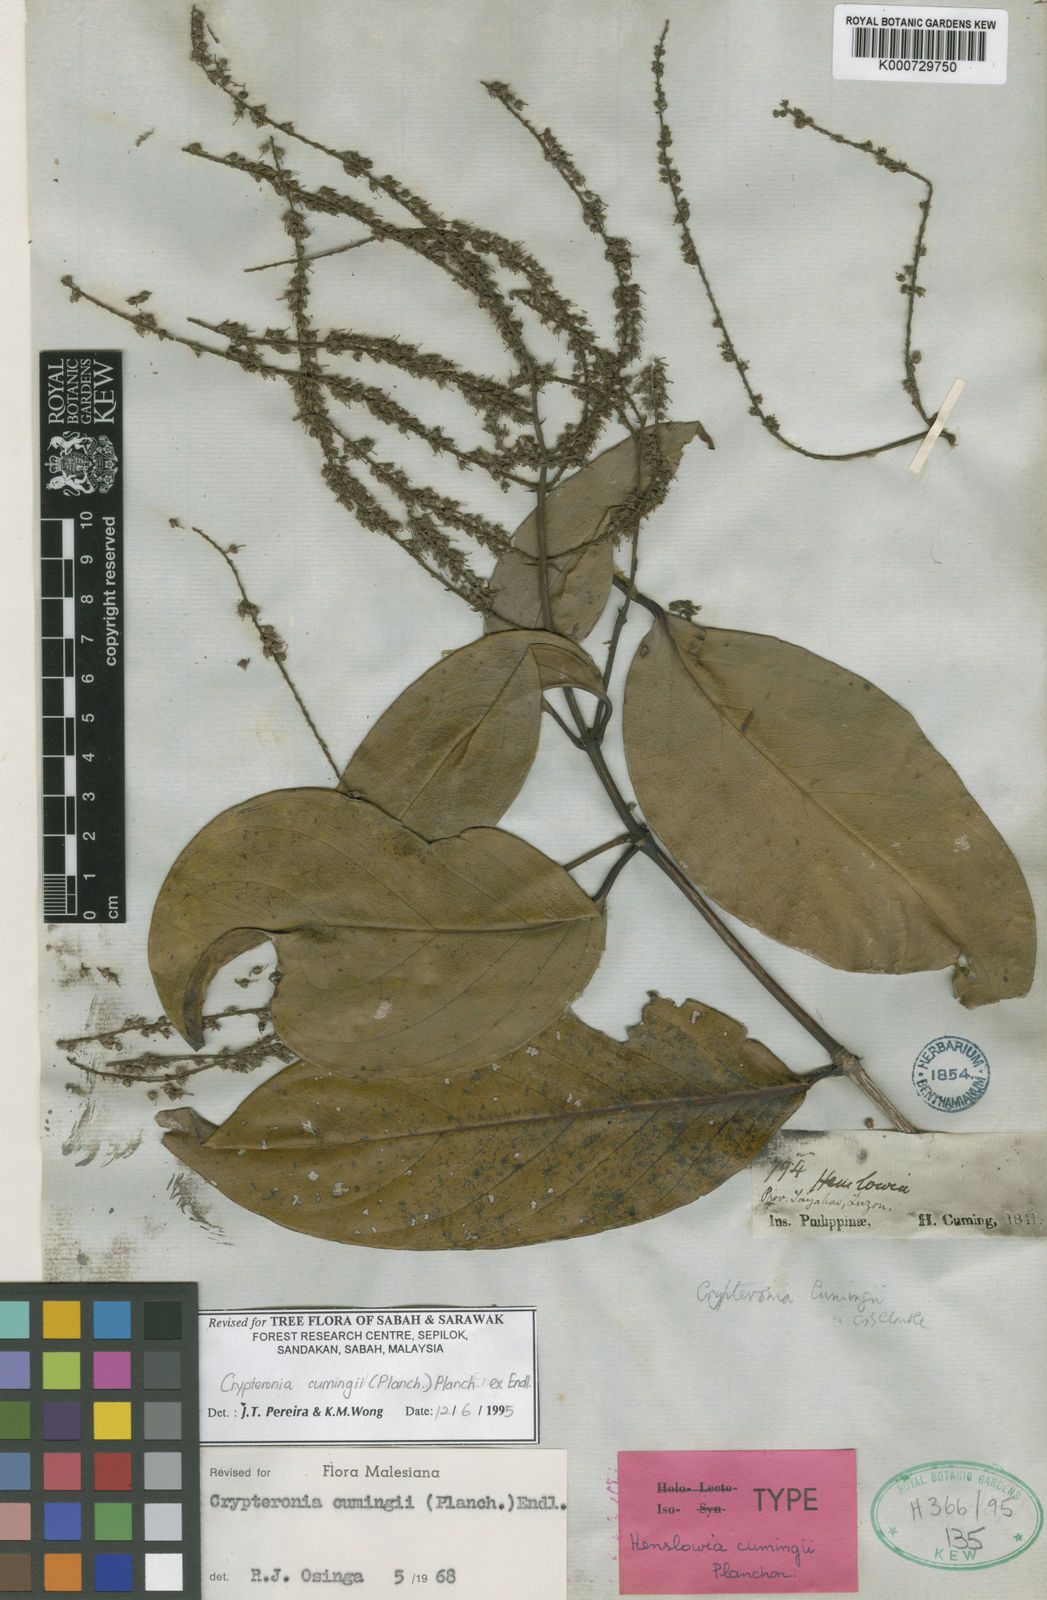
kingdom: Plantae
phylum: Tracheophyta
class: Magnoliopsida
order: Myrtales
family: Crypteroniaceae
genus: Crypteronia
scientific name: Crypteronia cumingii
